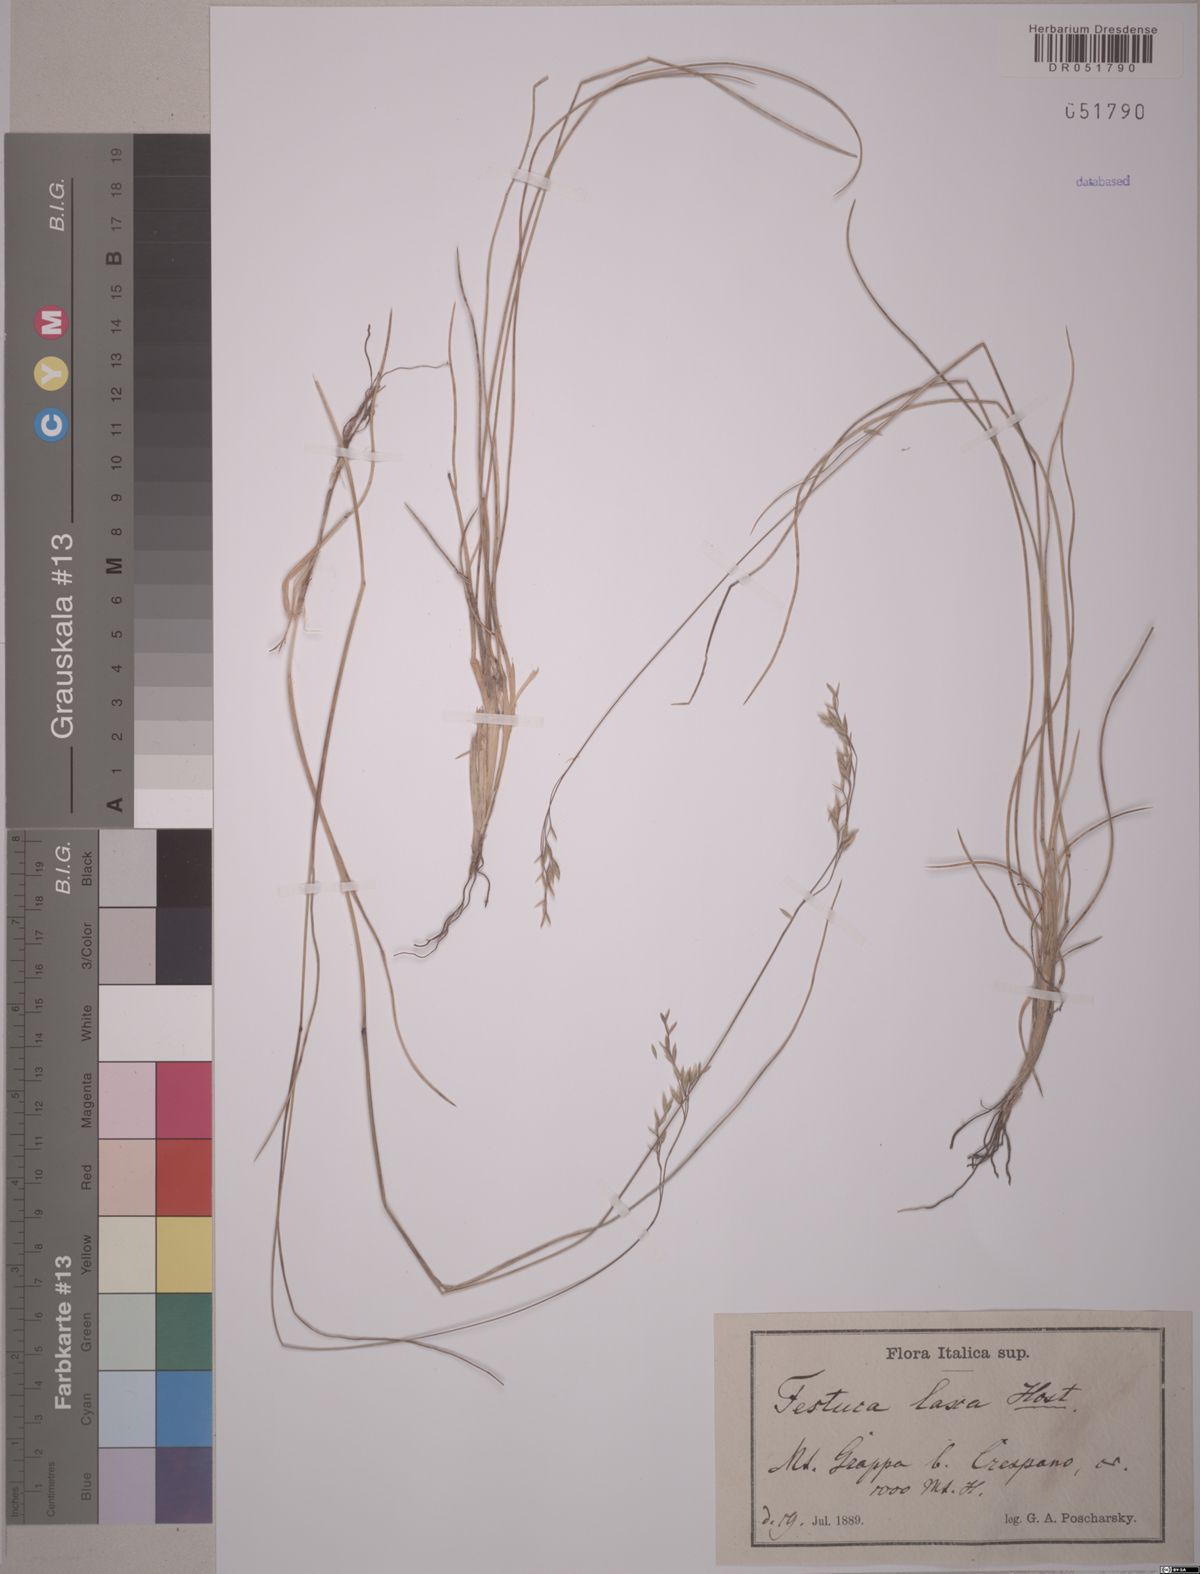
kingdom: Plantae
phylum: Tracheophyta
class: Liliopsida
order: Poales
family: Poaceae
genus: Festuca
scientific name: Festuca laxa
